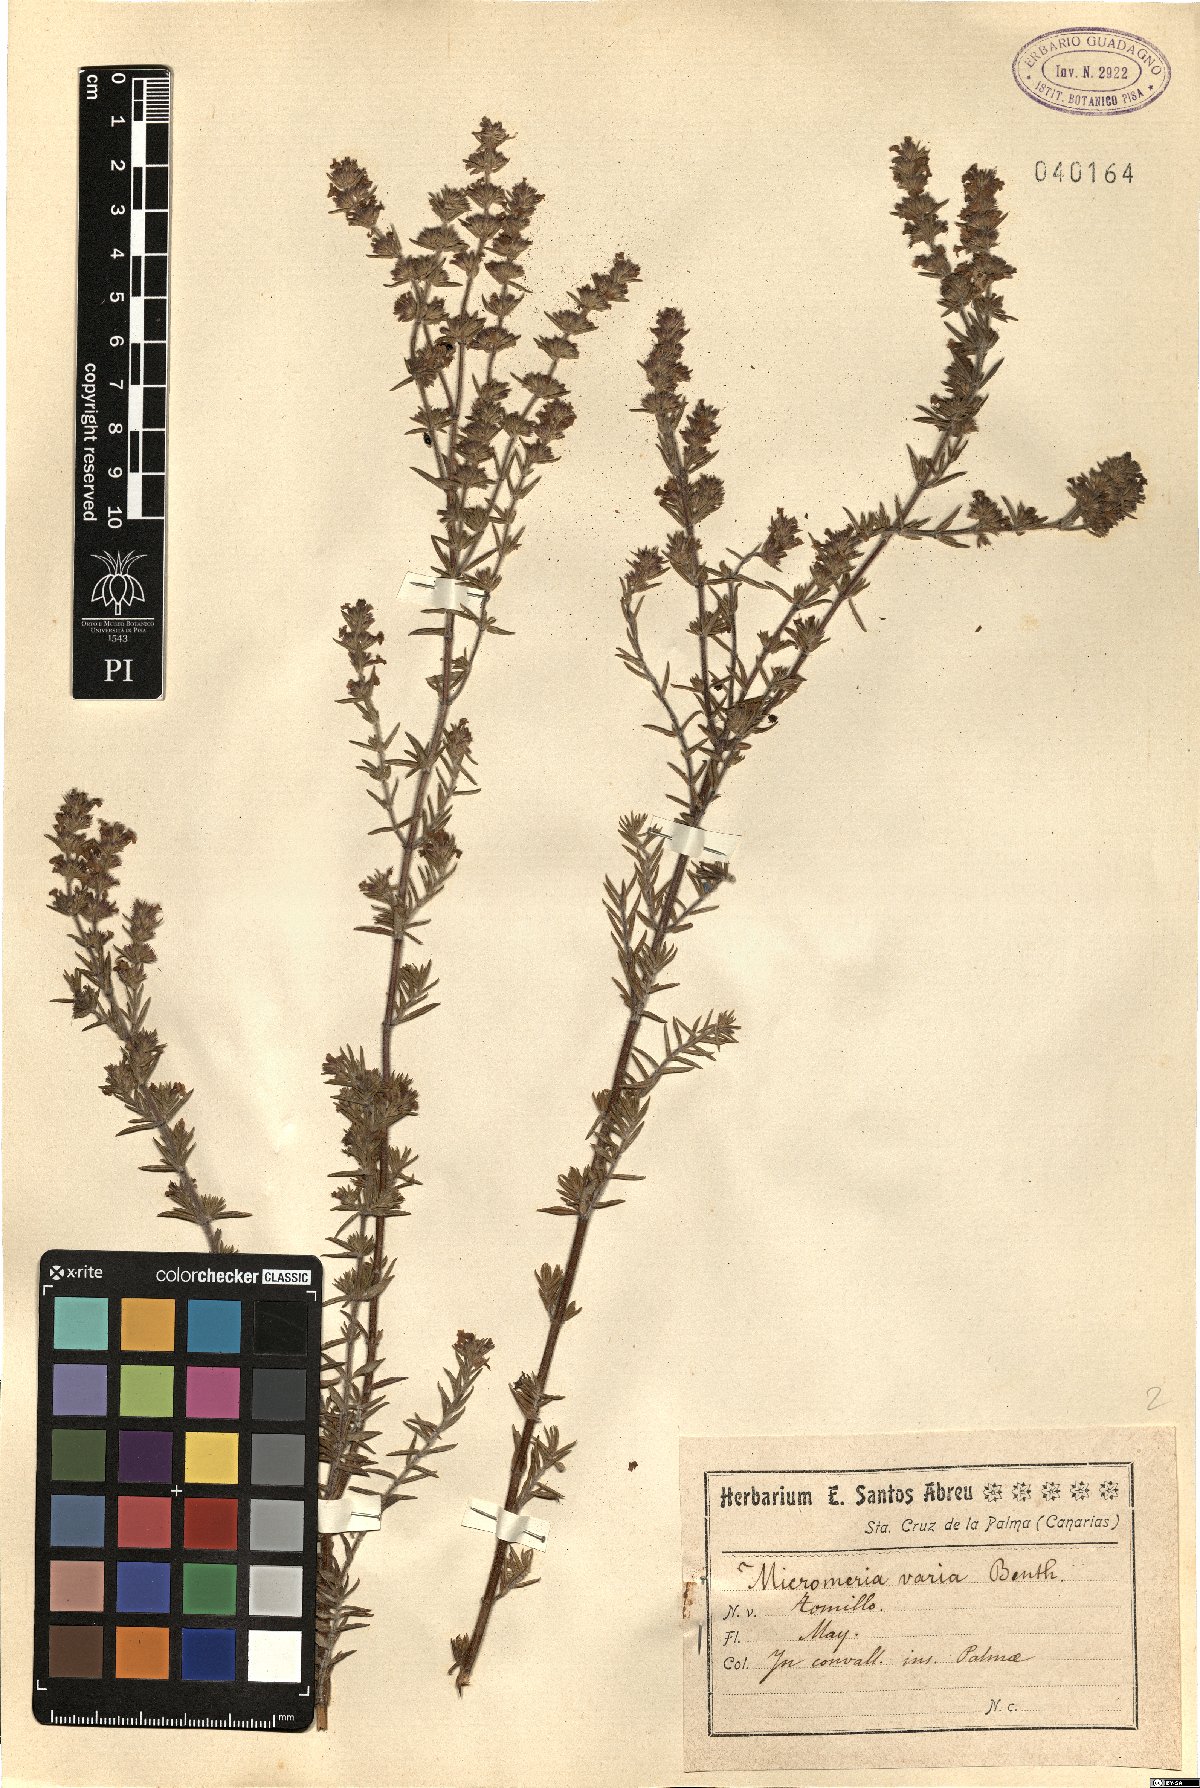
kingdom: Plantae
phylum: Tracheophyta
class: Magnoliopsida
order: Lamiales
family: Lamiaceae
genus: Micromeria
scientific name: Micromeria ericifolia
